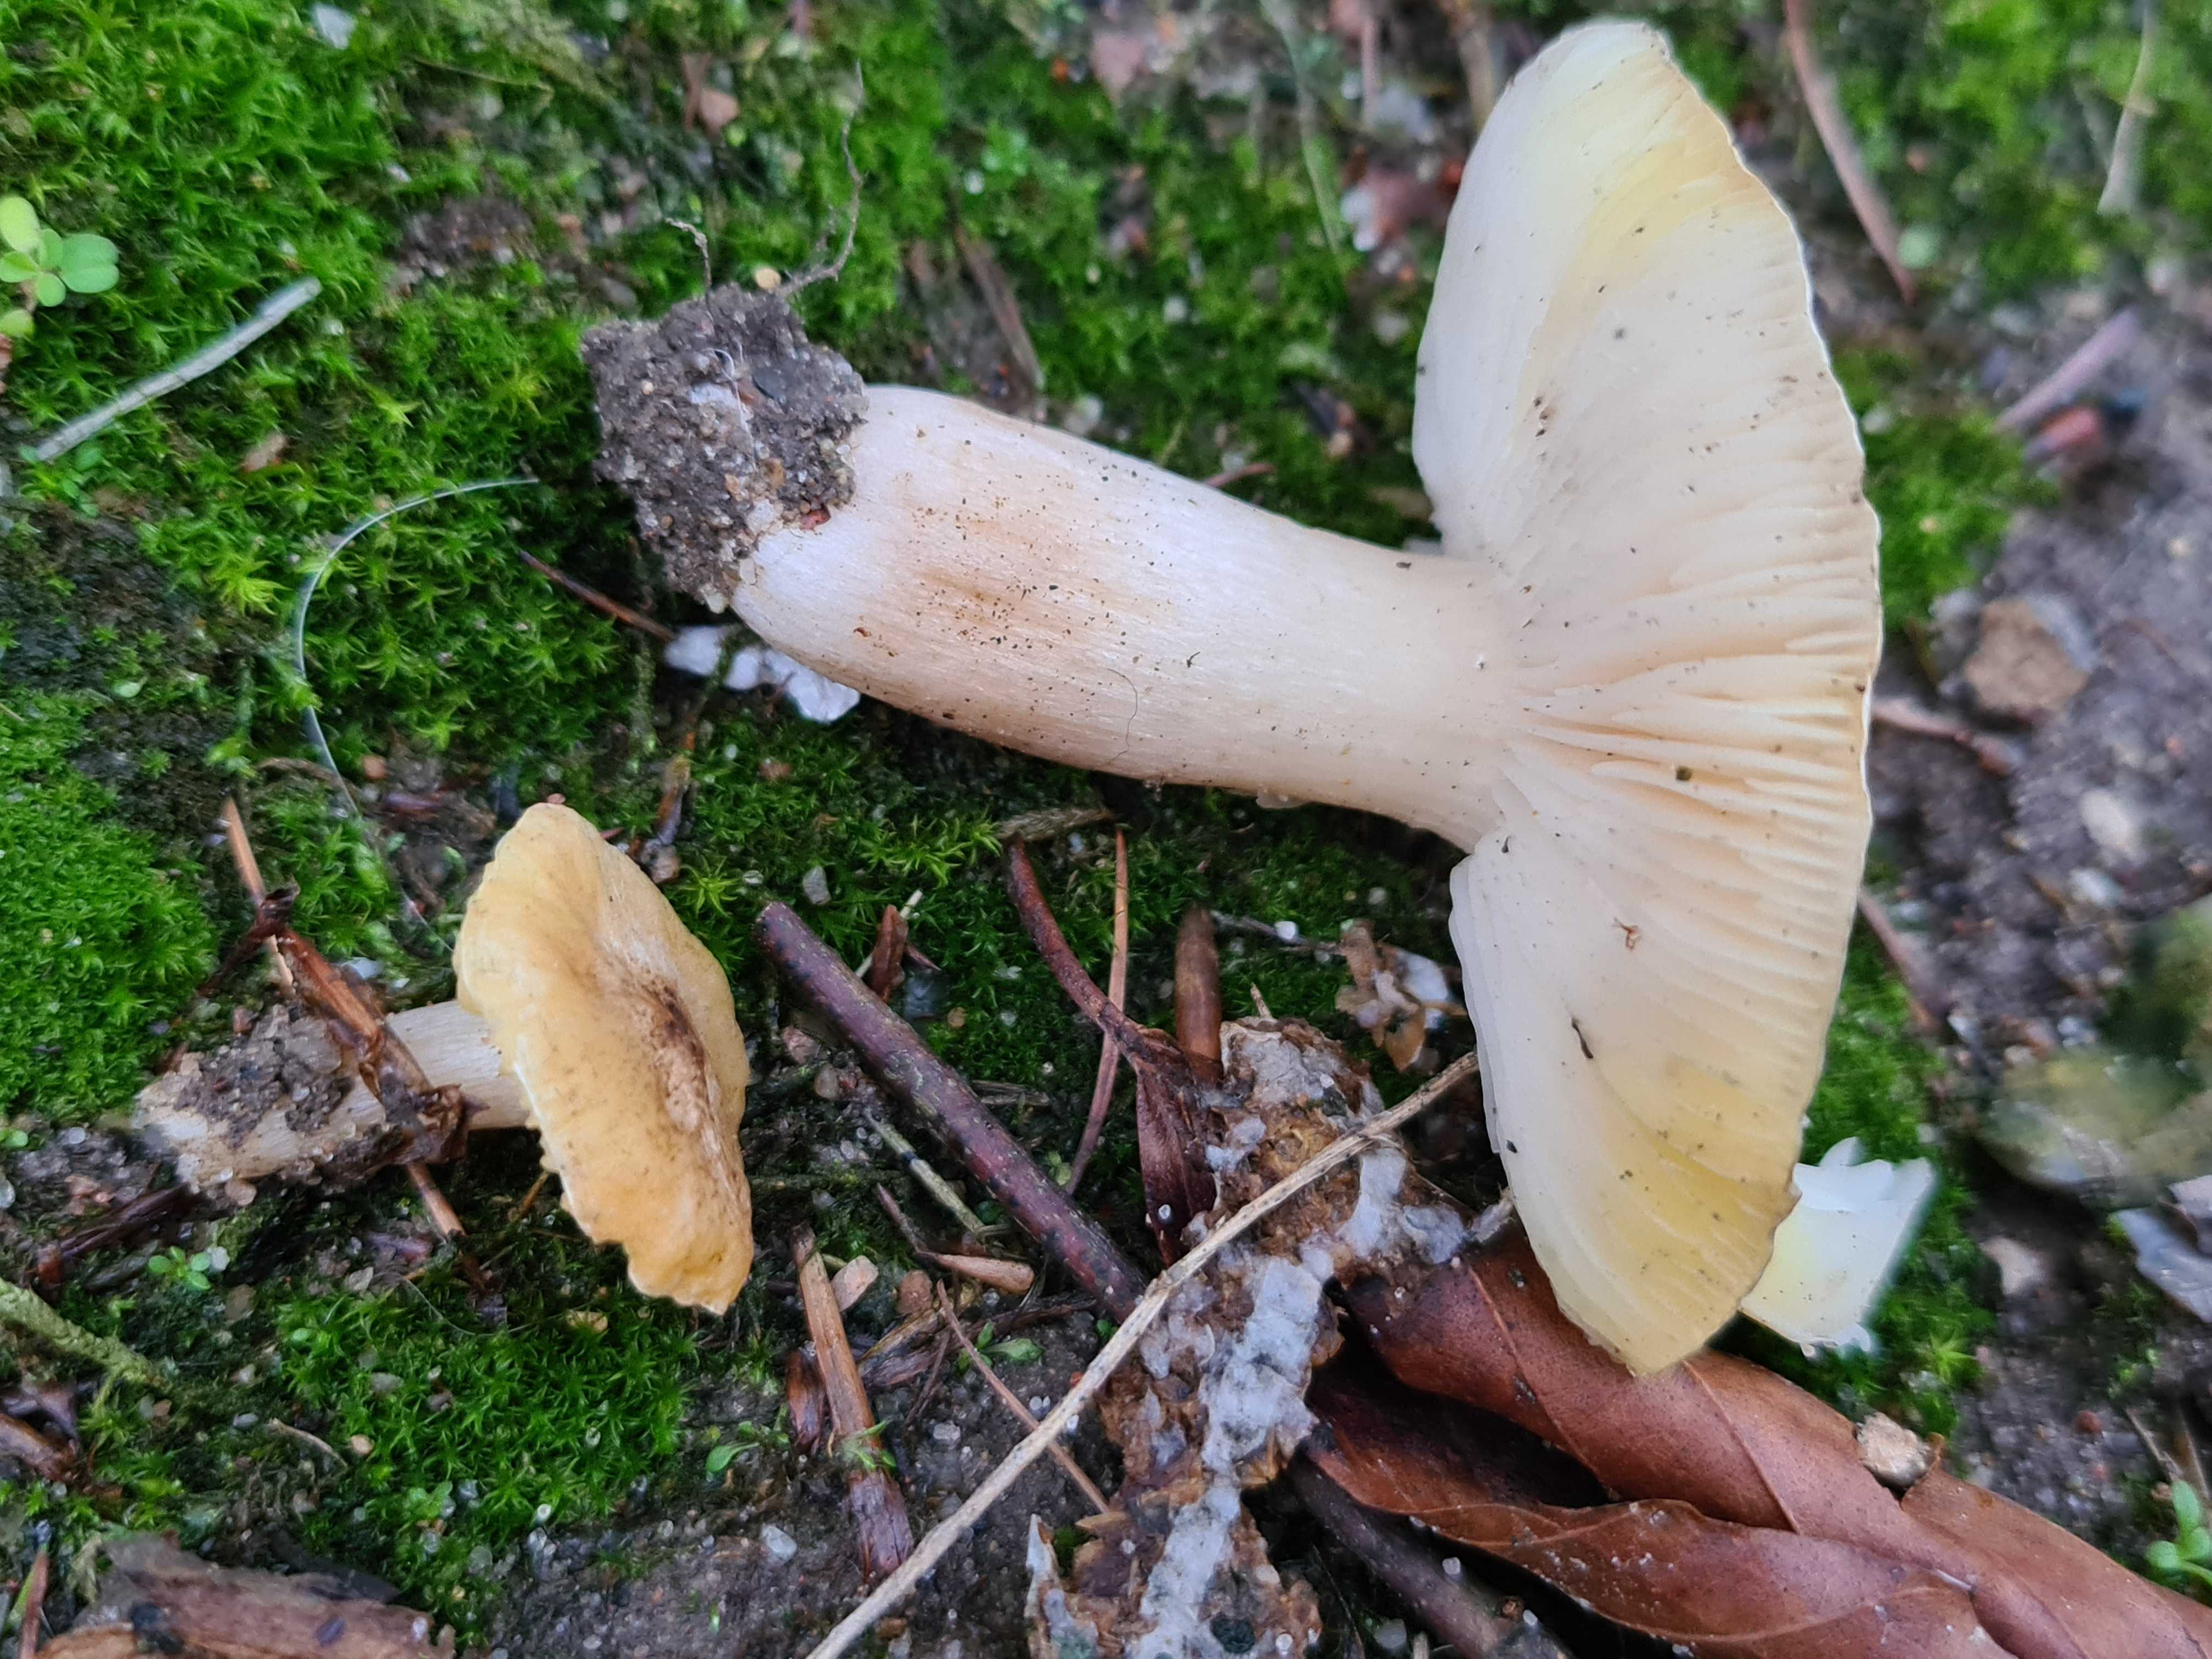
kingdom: Fungi
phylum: Basidiomycota
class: Agaricomycetes
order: Agaricales
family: Tricholomataceae
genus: Tricholoma
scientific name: Tricholoma scalpturatum
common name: gulplettet ridderhat
